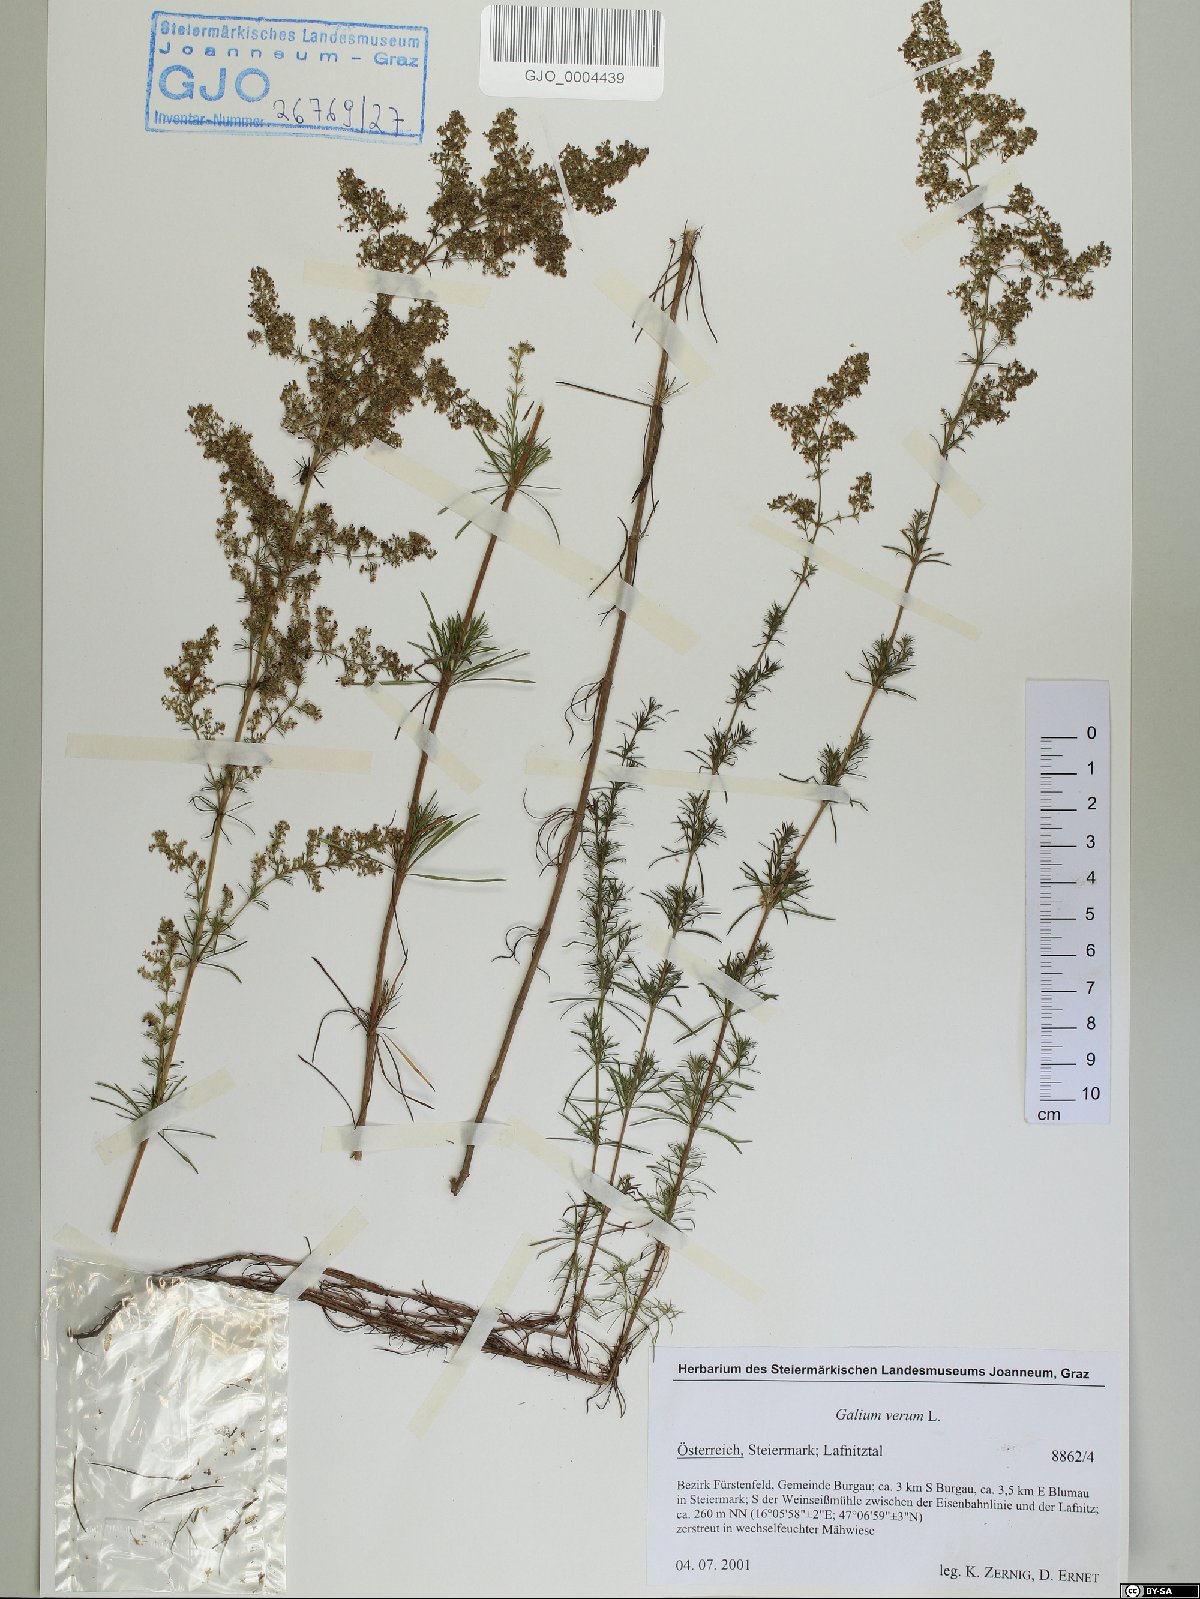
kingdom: Plantae
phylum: Tracheophyta
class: Magnoliopsida
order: Gentianales
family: Rubiaceae
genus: Galium
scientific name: Galium verum
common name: Lady's bedstraw
